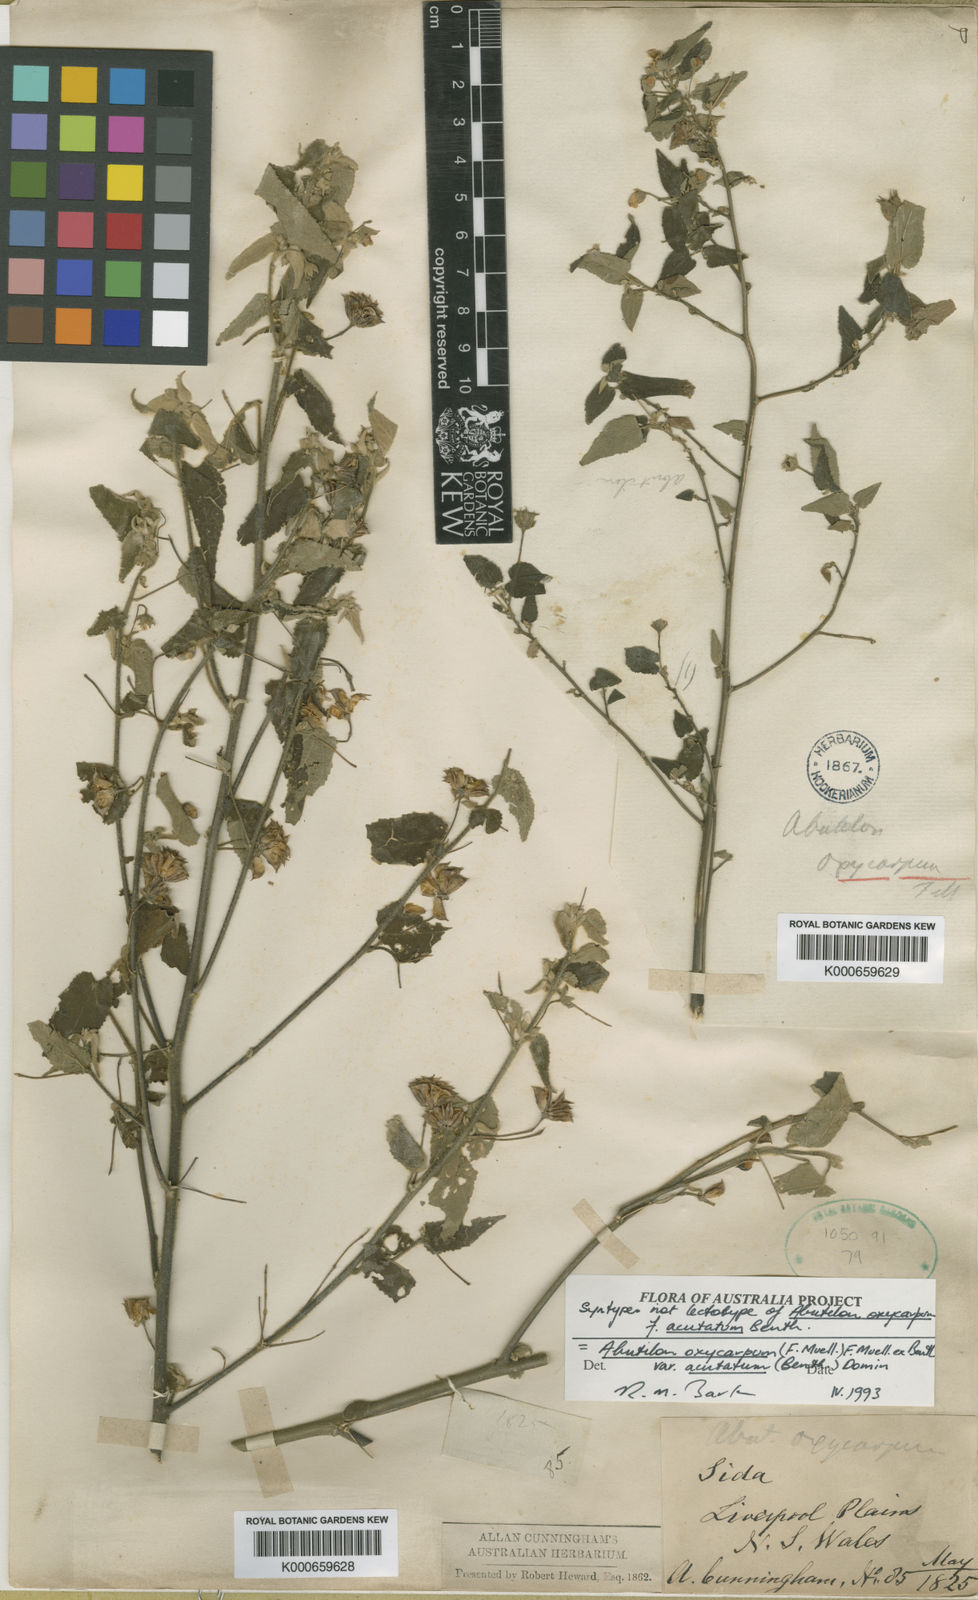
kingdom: Plantae
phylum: Tracheophyta
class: Magnoliopsida
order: Malvales
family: Malvaceae
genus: Abutilon
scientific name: Abutilon oxycarpum
